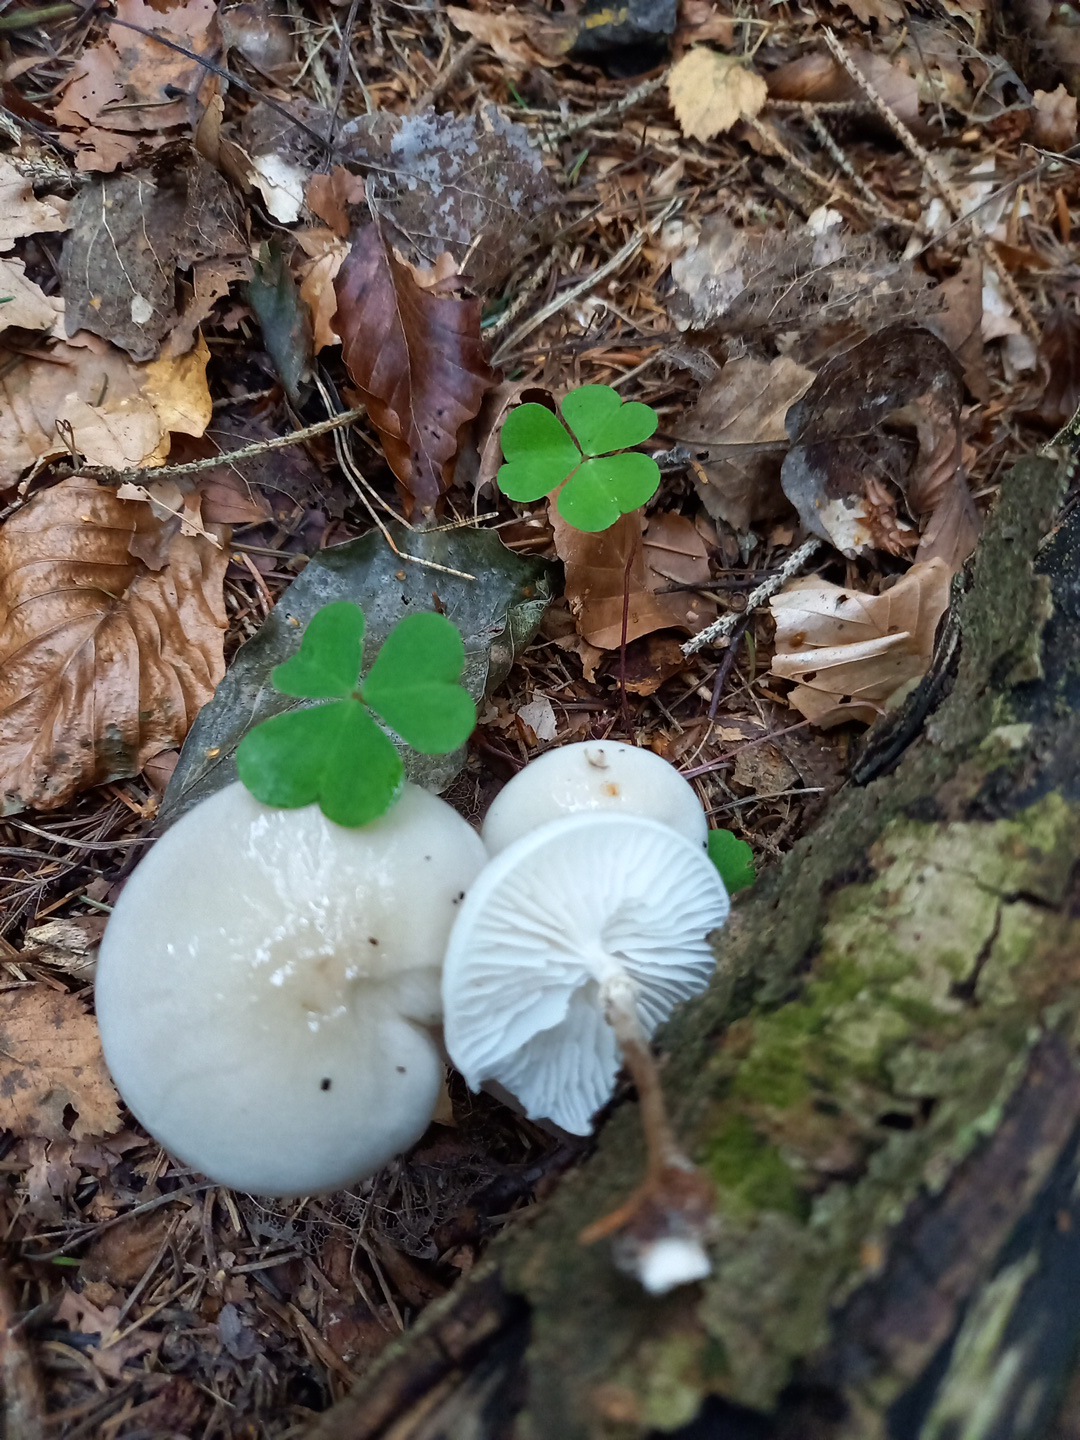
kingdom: Fungi
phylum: Basidiomycota
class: Agaricomycetes
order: Agaricales
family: Physalacriaceae
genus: Mucidula
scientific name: Mucidula mucida
